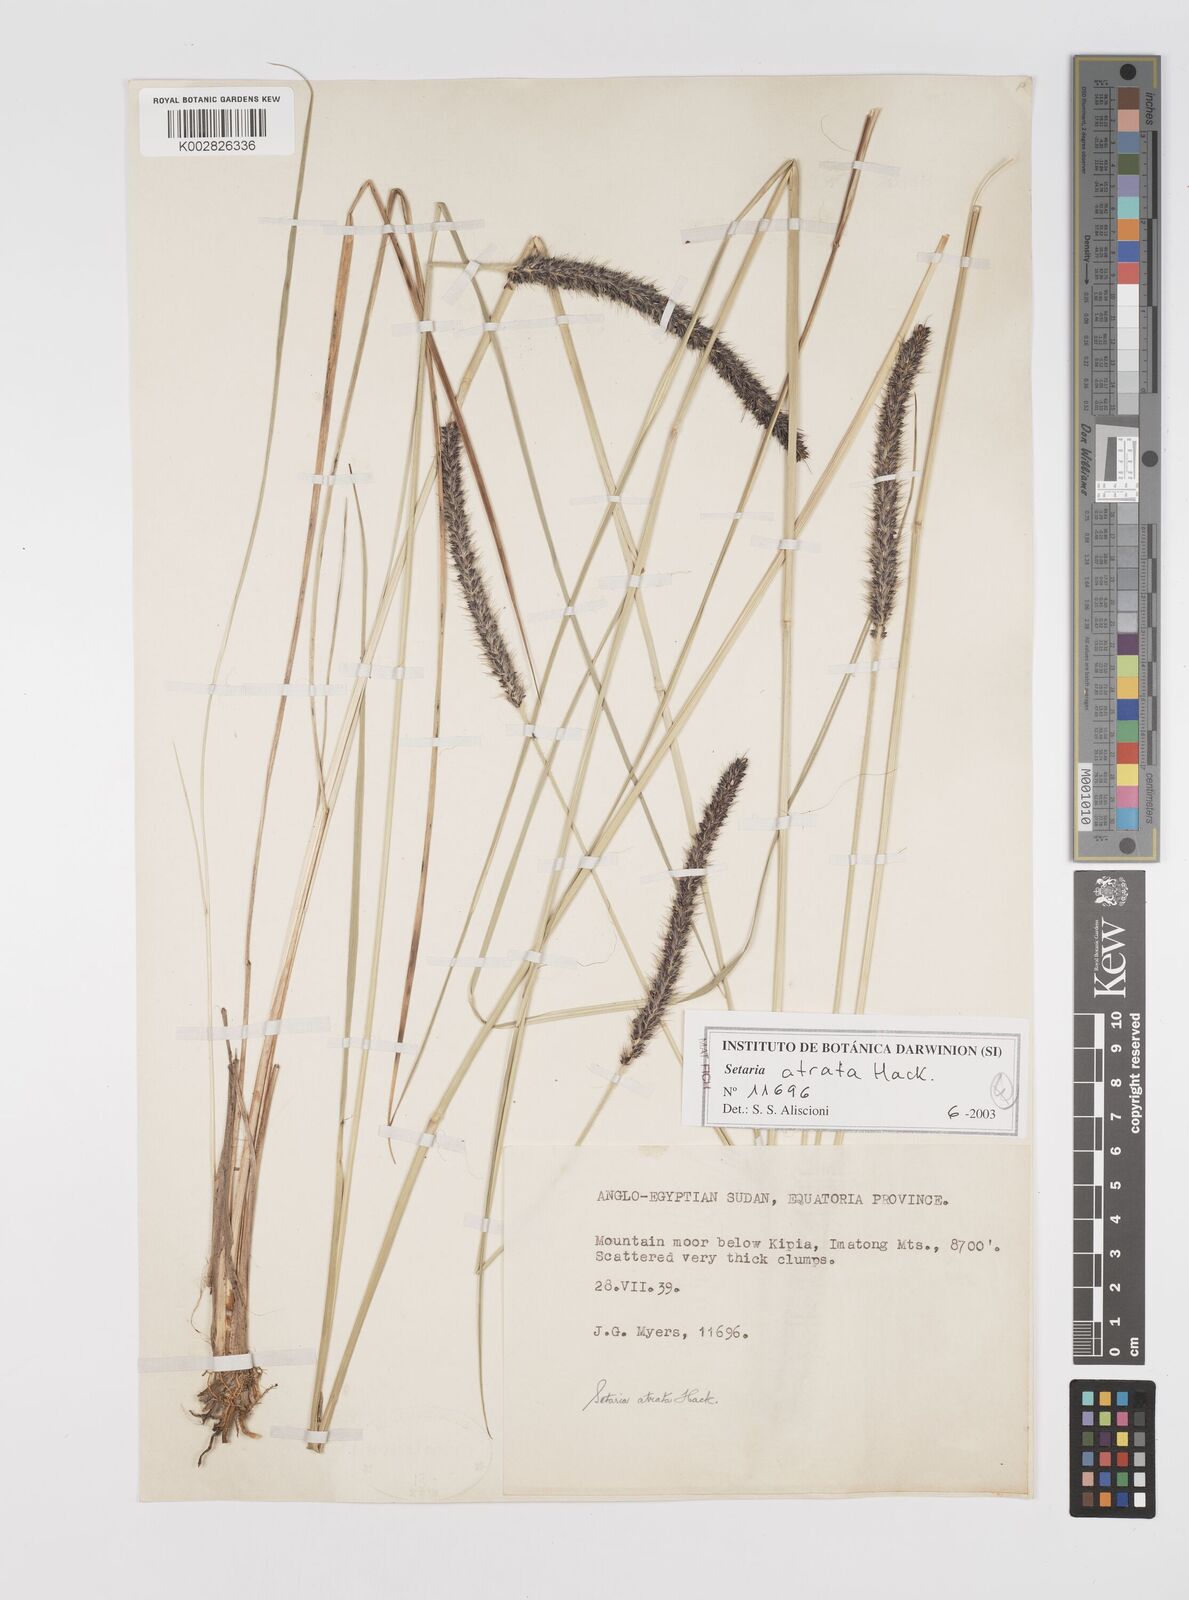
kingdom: Plantae
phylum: Tracheophyta
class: Liliopsida
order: Poales
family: Poaceae
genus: Setaria
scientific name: Setaria atrata
